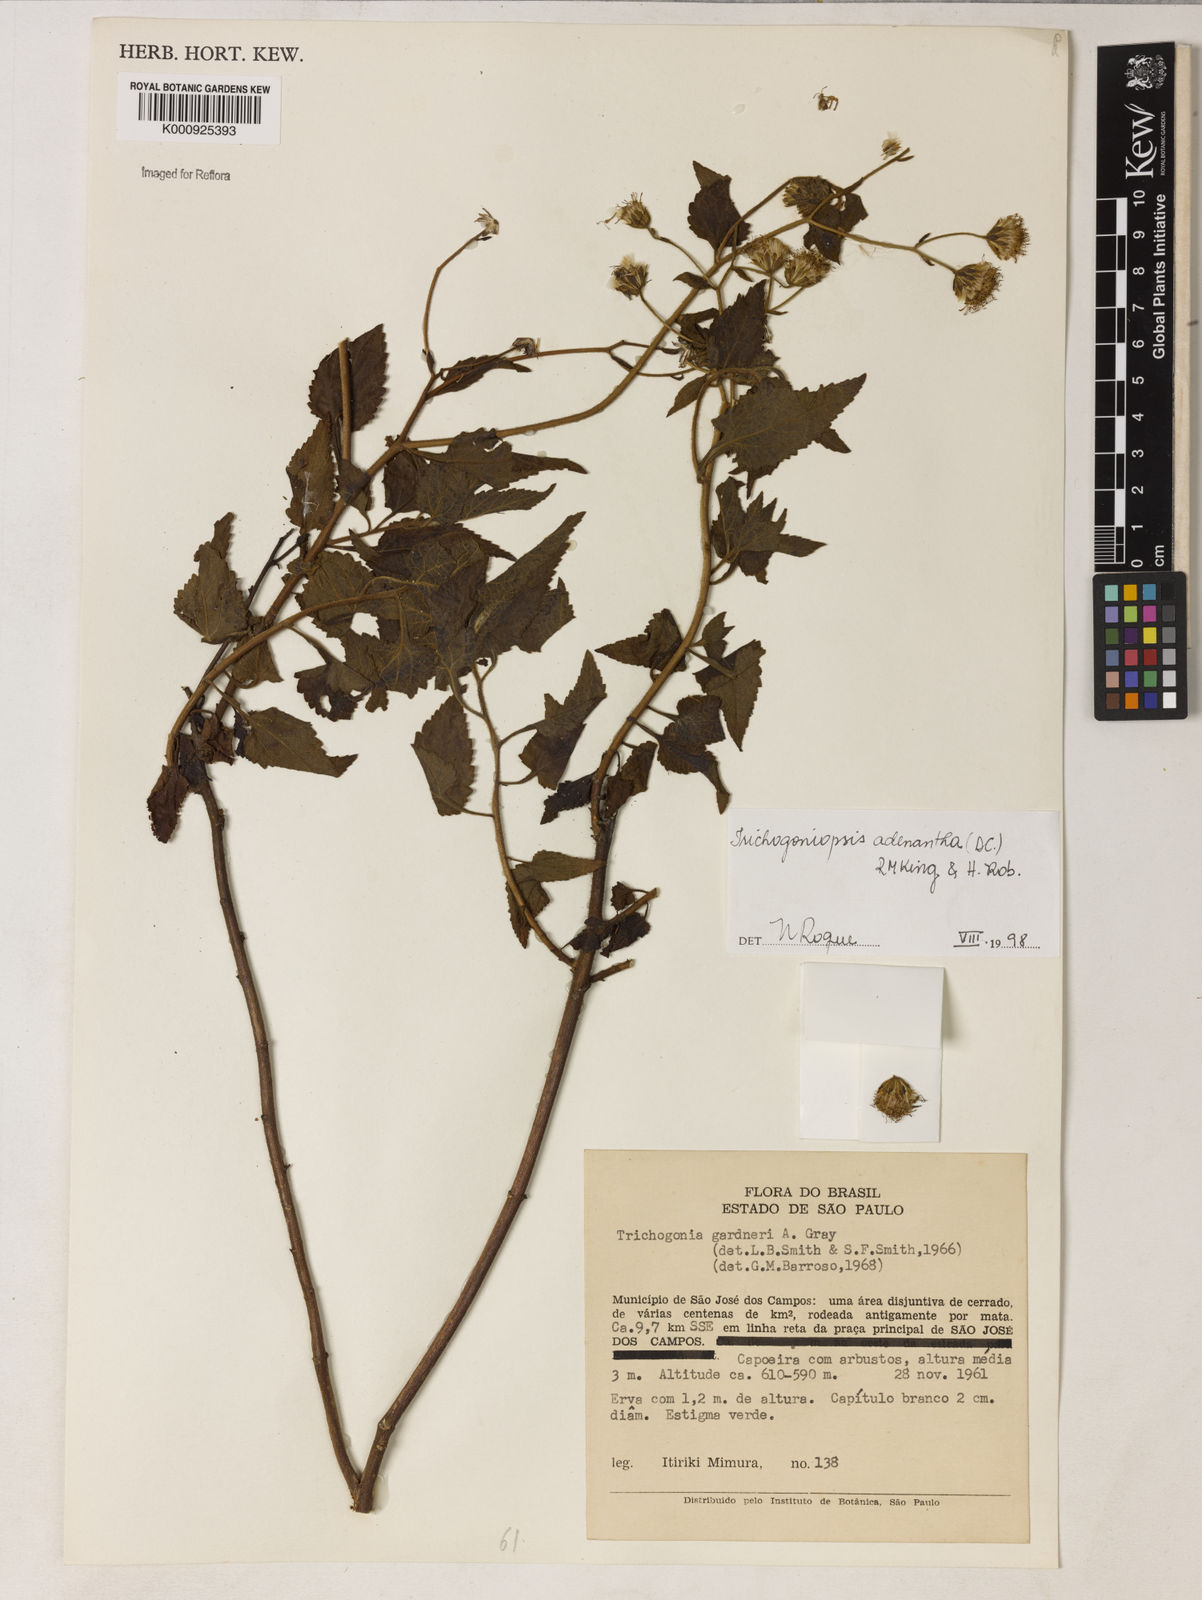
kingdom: Plantae
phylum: Tracheophyta
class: Magnoliopsida
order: Asterales
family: Asteraceae
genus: Trichogoniopsis
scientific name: Trichogoniopsis adenantha
